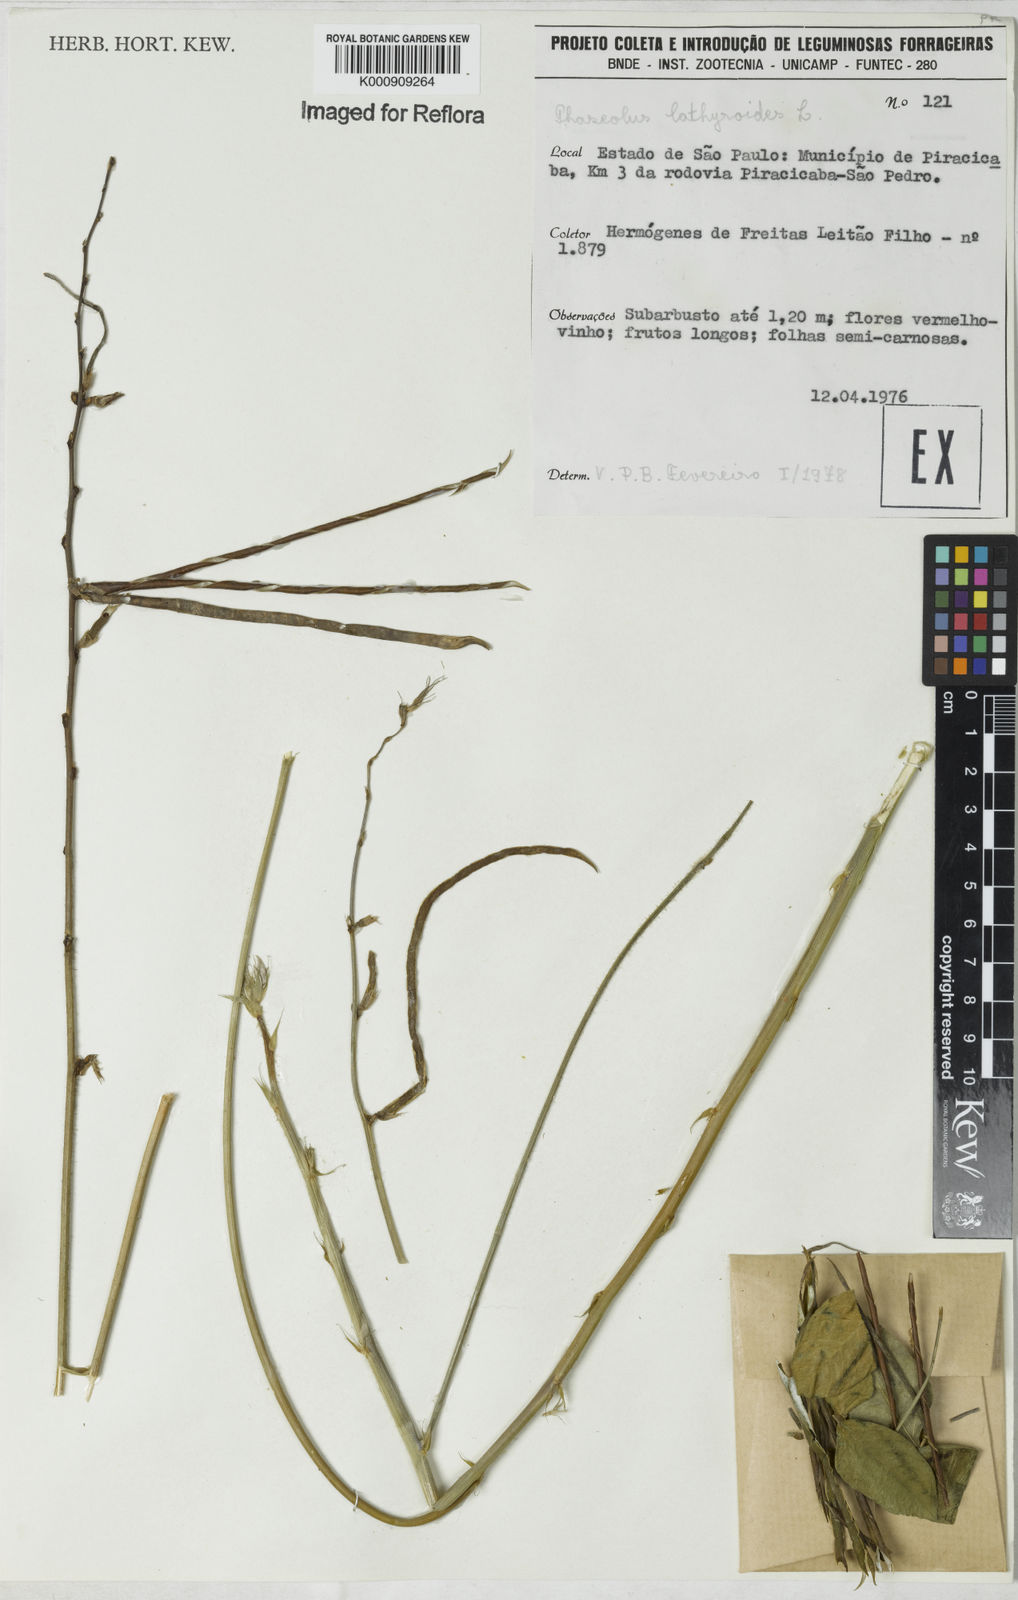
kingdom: Plantae
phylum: Tracheophyta
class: Magnoliopsida
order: Fabales
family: Fabaceae
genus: Macroptilium
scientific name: Macroptilium lathyroides
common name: Wild bushbean
